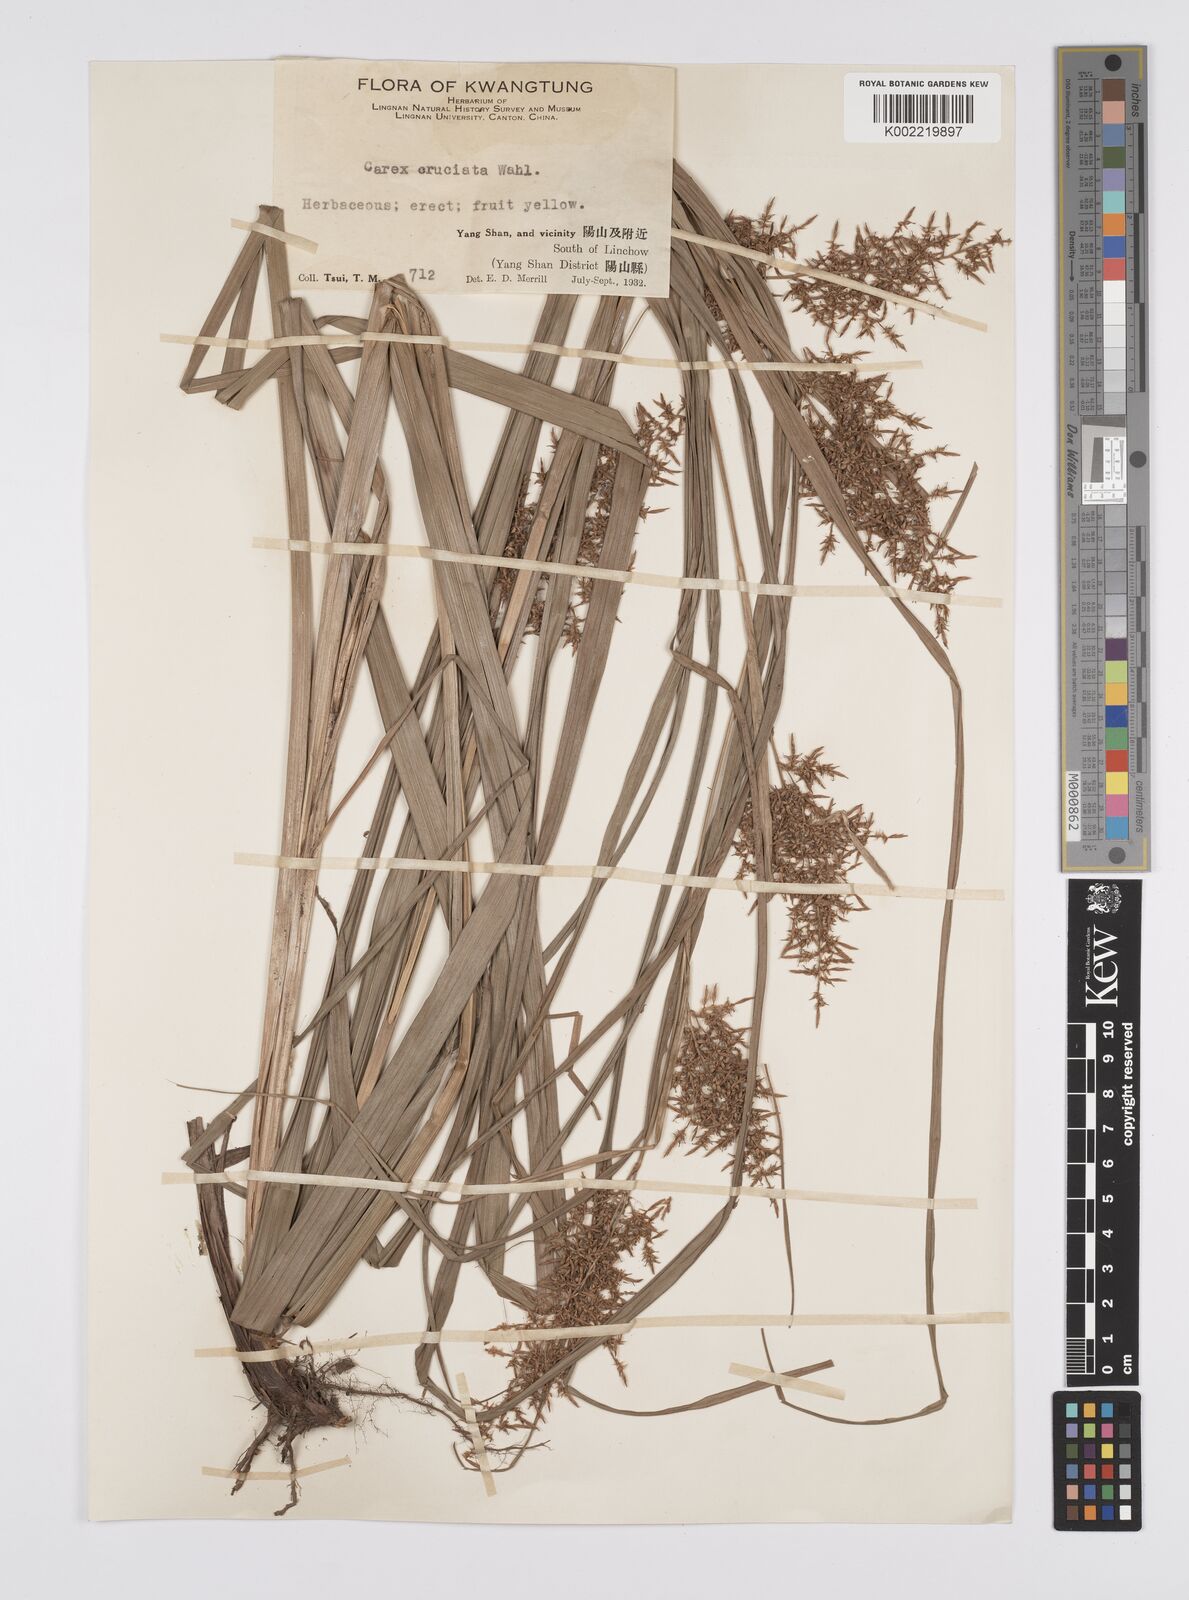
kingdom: Plantae
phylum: Tracheophyta
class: Liliopsida
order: Poales
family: Cyperaceae
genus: Carex
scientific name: Carex cruciata
